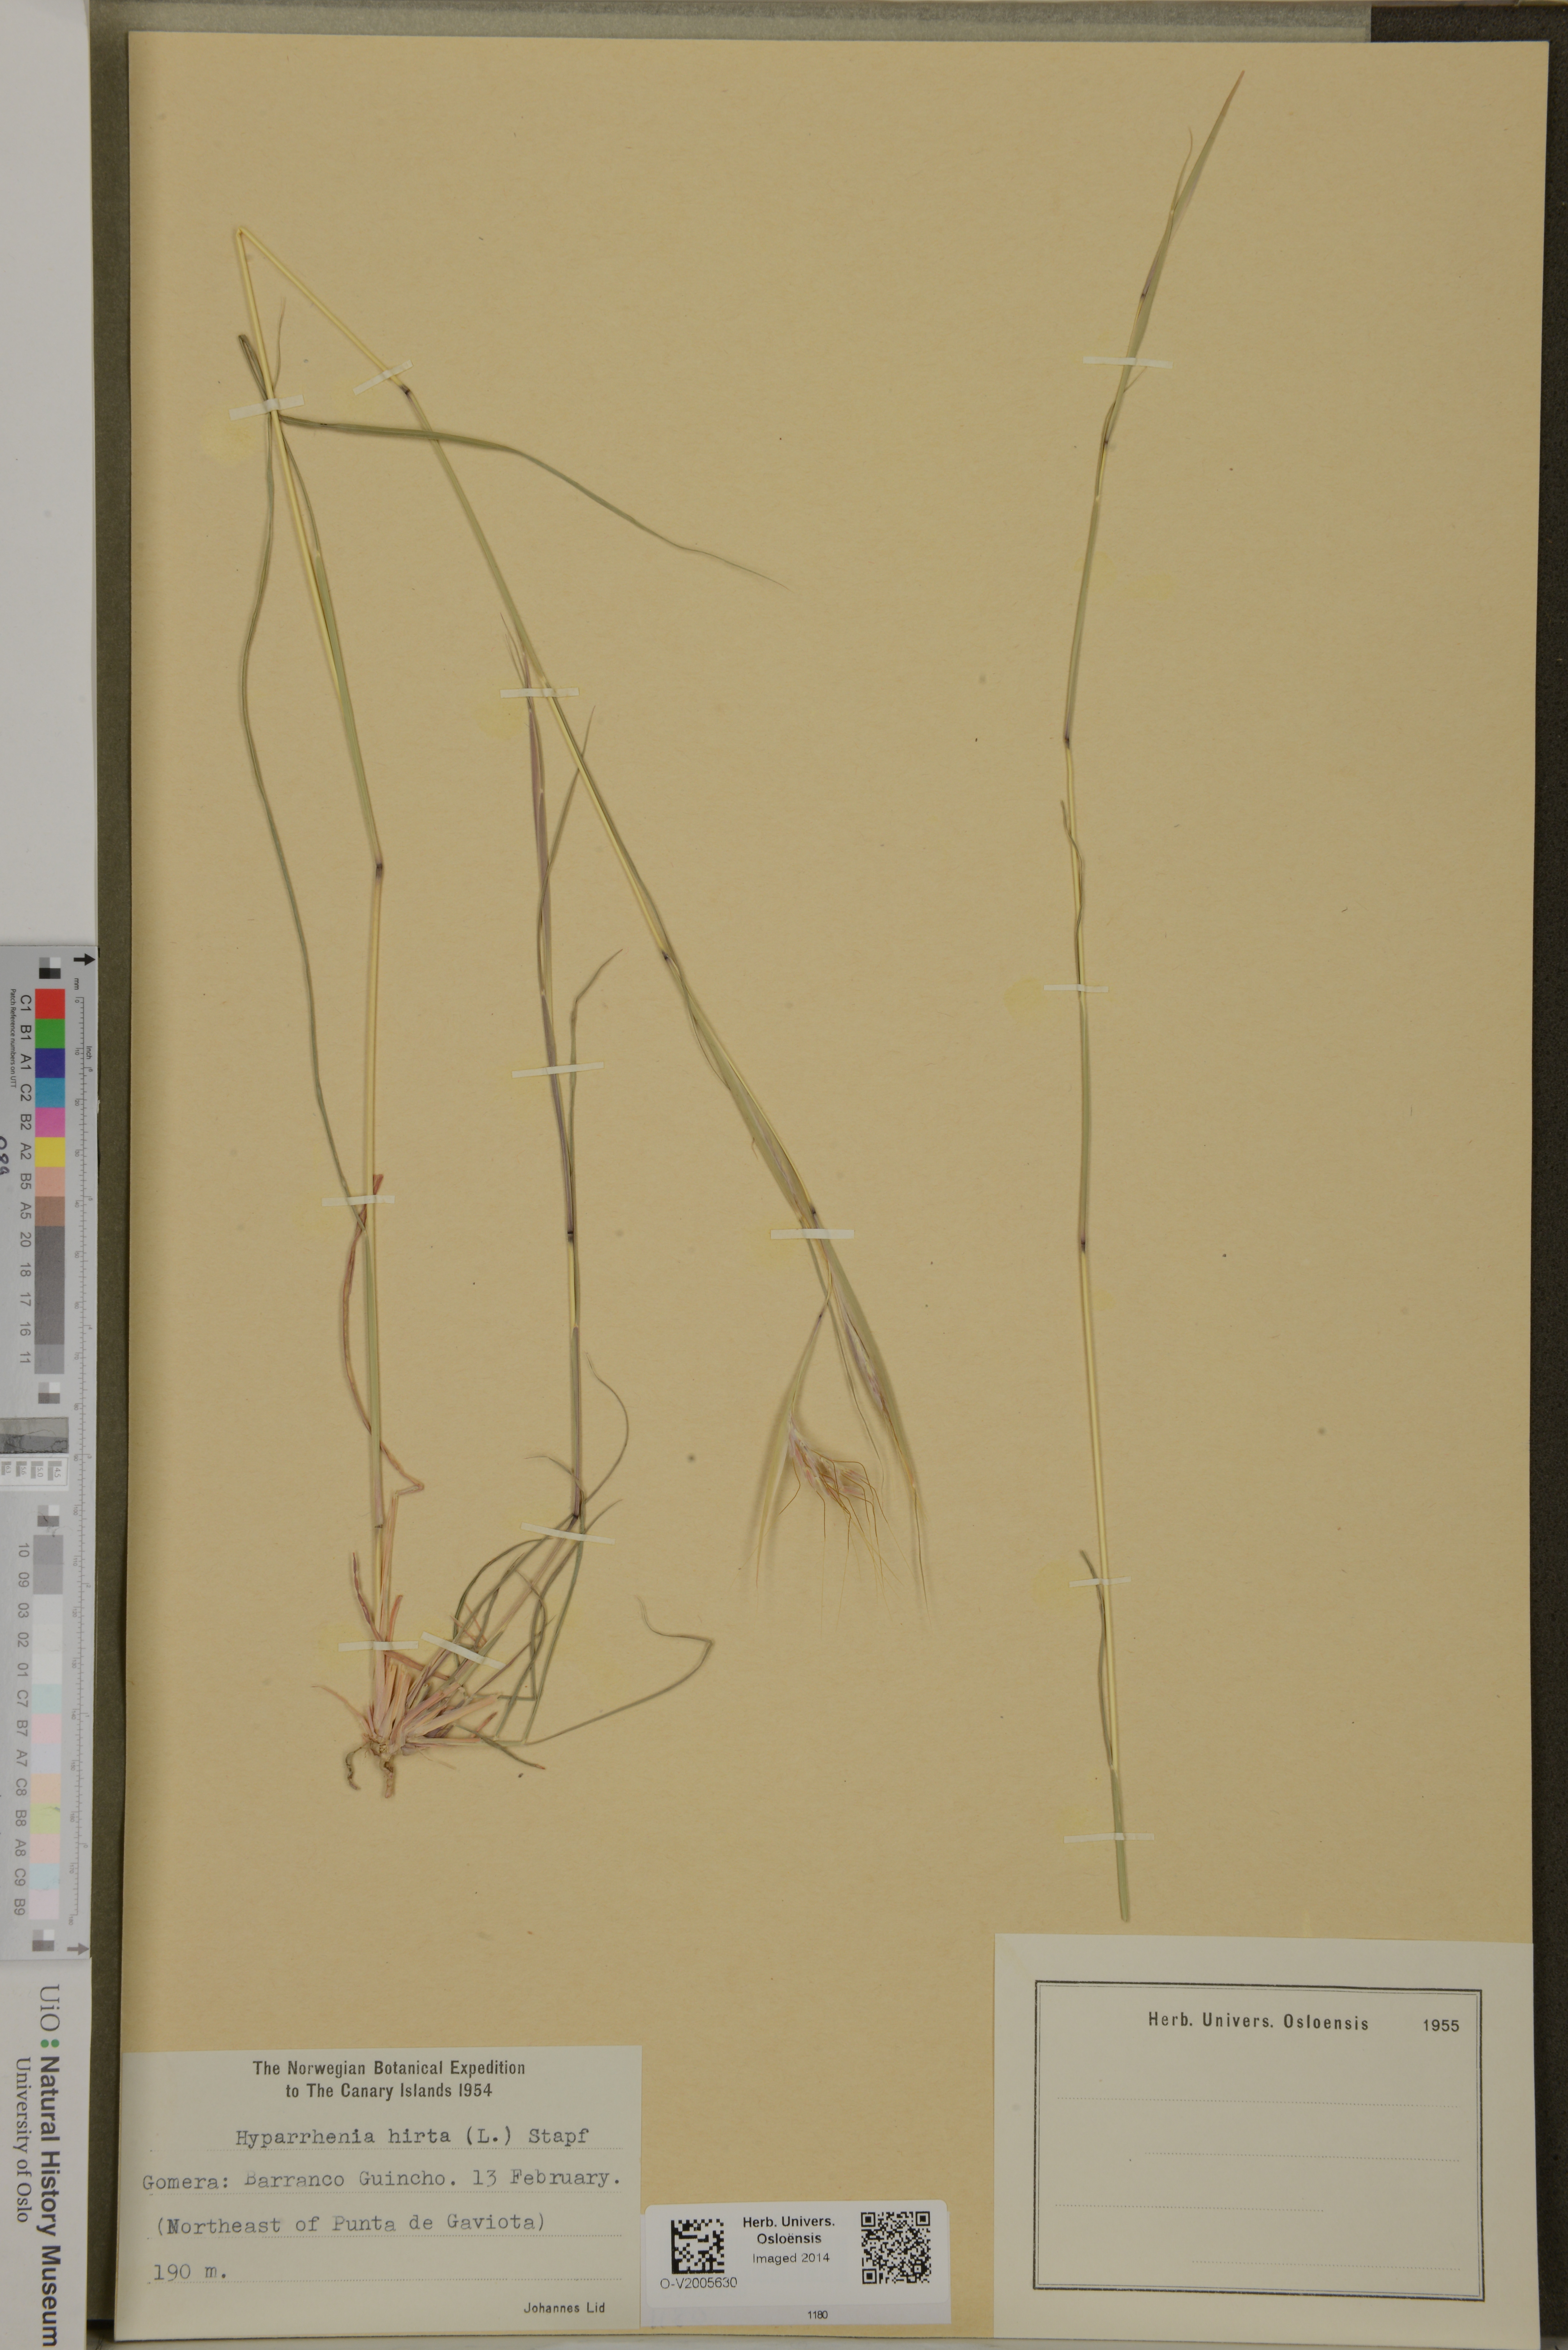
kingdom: Plantae
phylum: Tracheophyta
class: Liliopsida
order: Poales
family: Poaceae
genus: Hyparrhenia
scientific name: Hyparrhenia hirta
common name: Thatching grass
